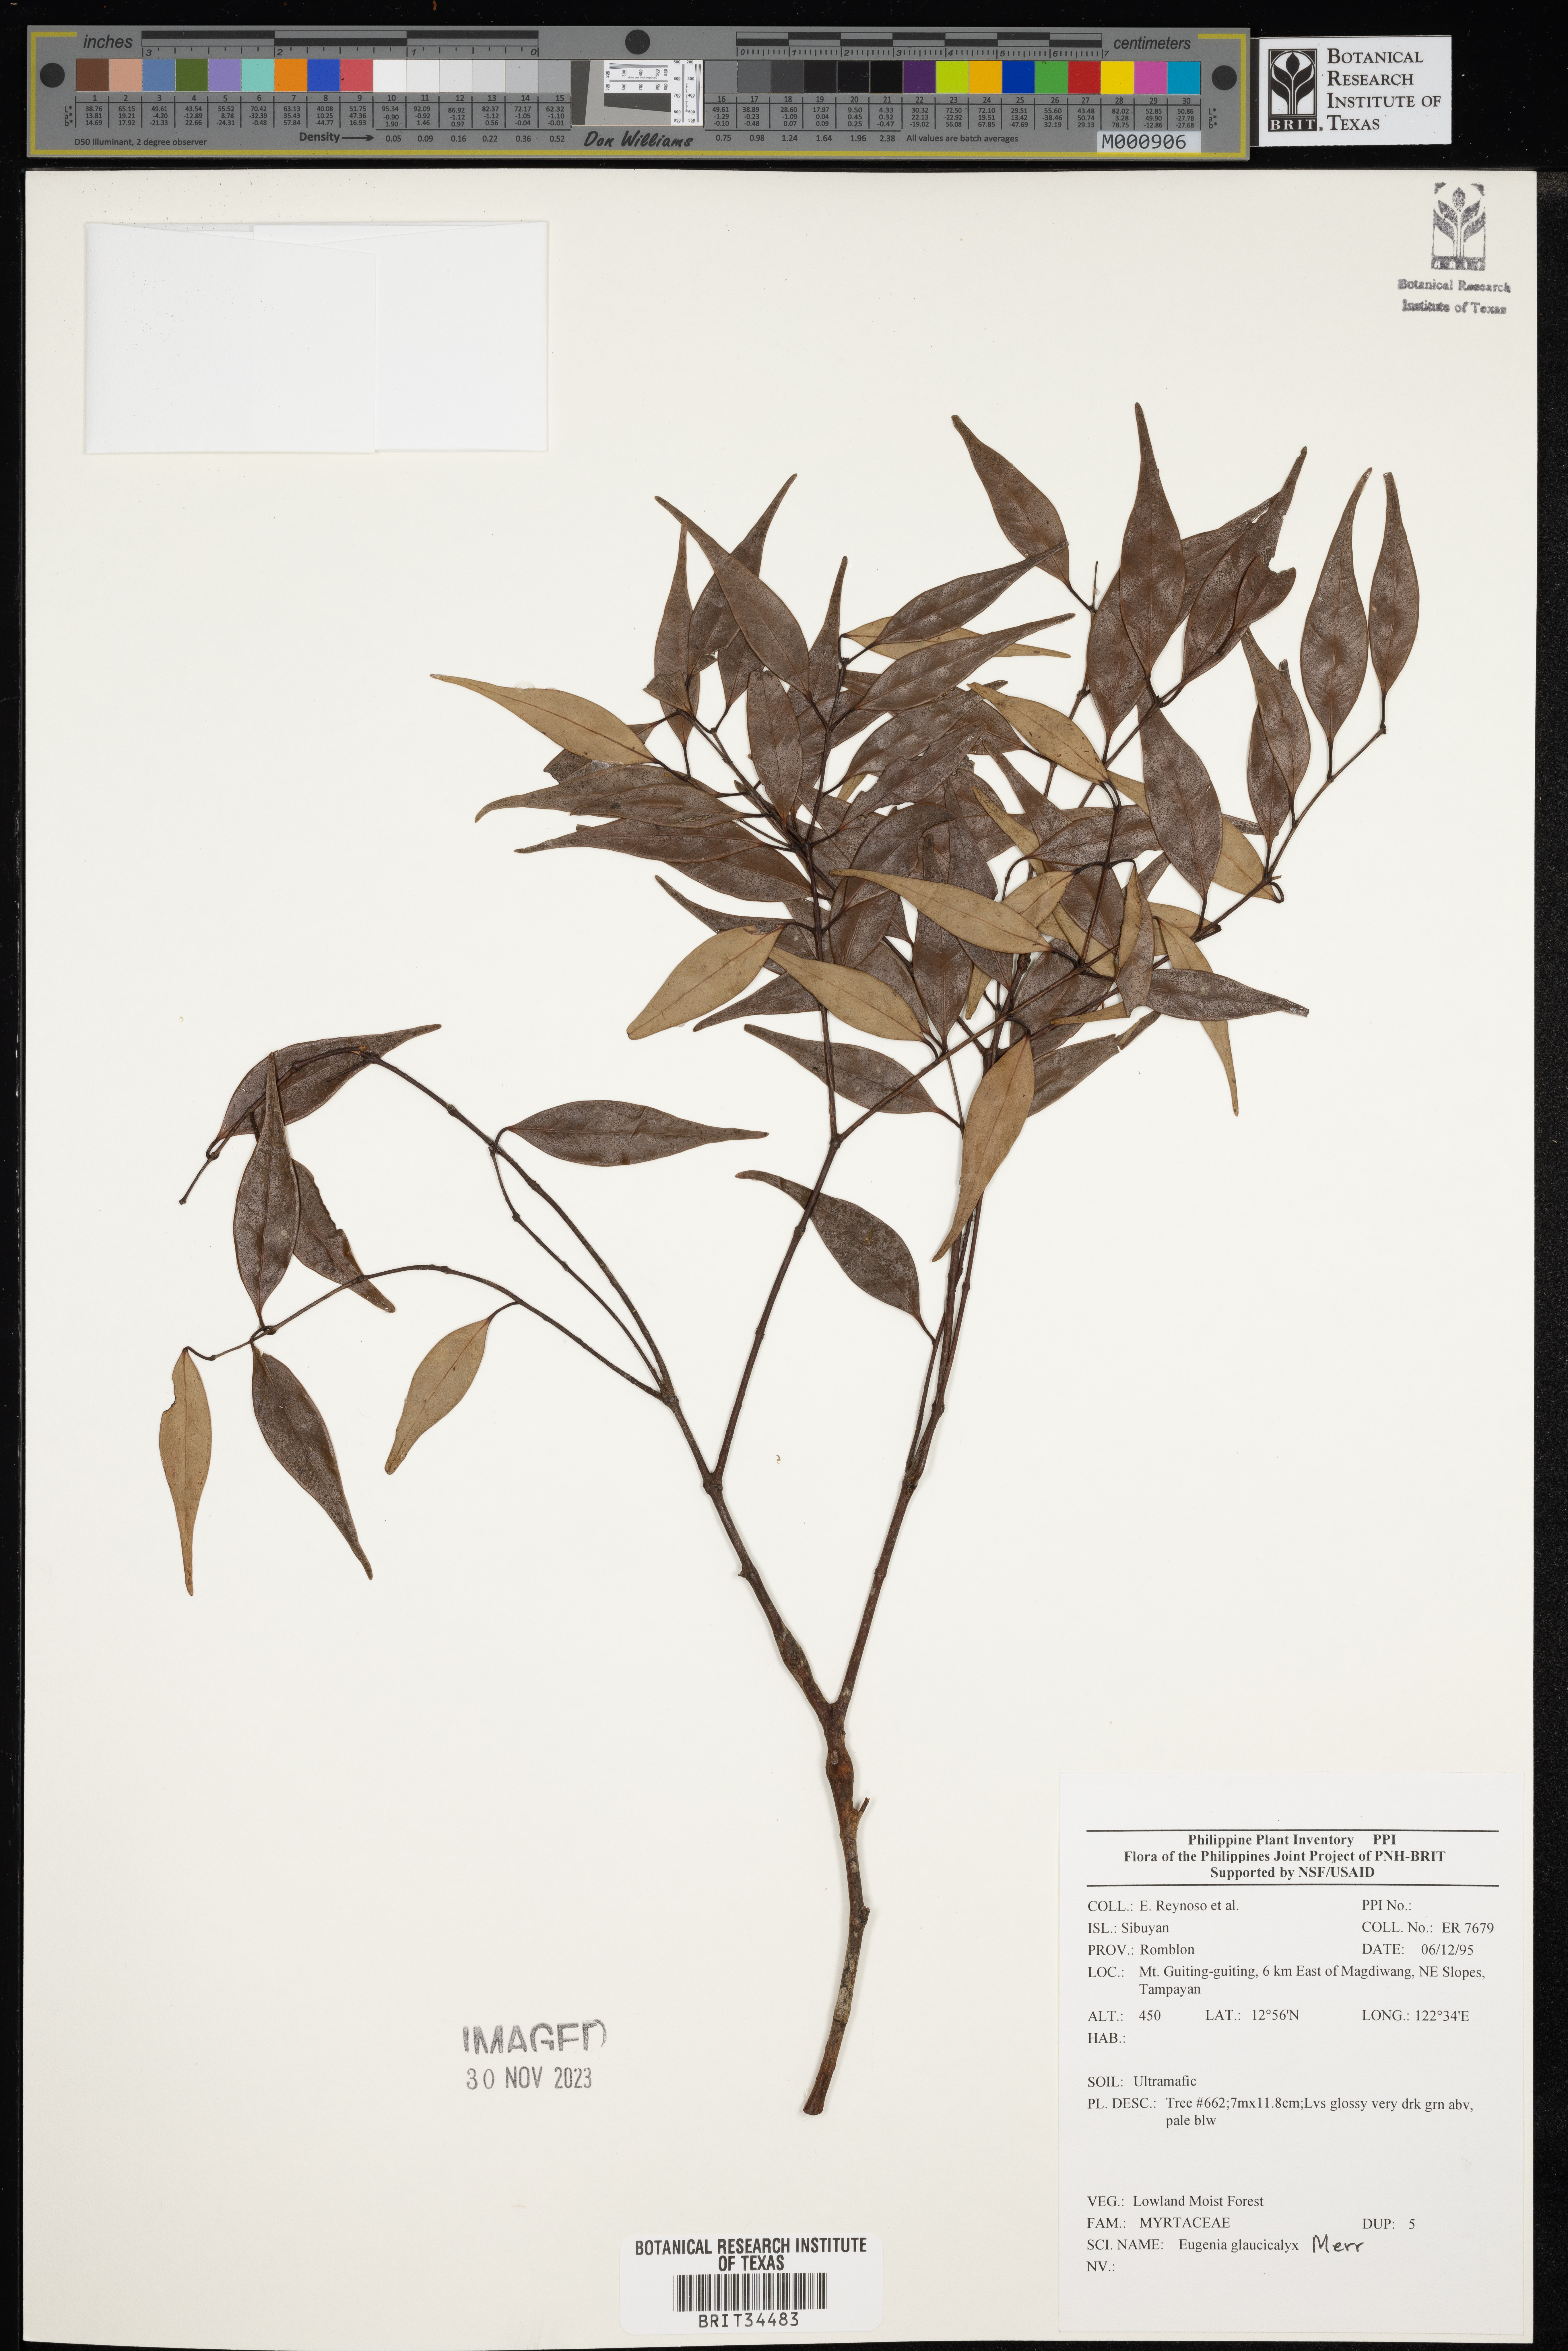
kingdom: Plantae
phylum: Tracheophyta
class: Magnoliopsida
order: Myrtales
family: Myrtaceae
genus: Eugenia
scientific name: Eugenia
